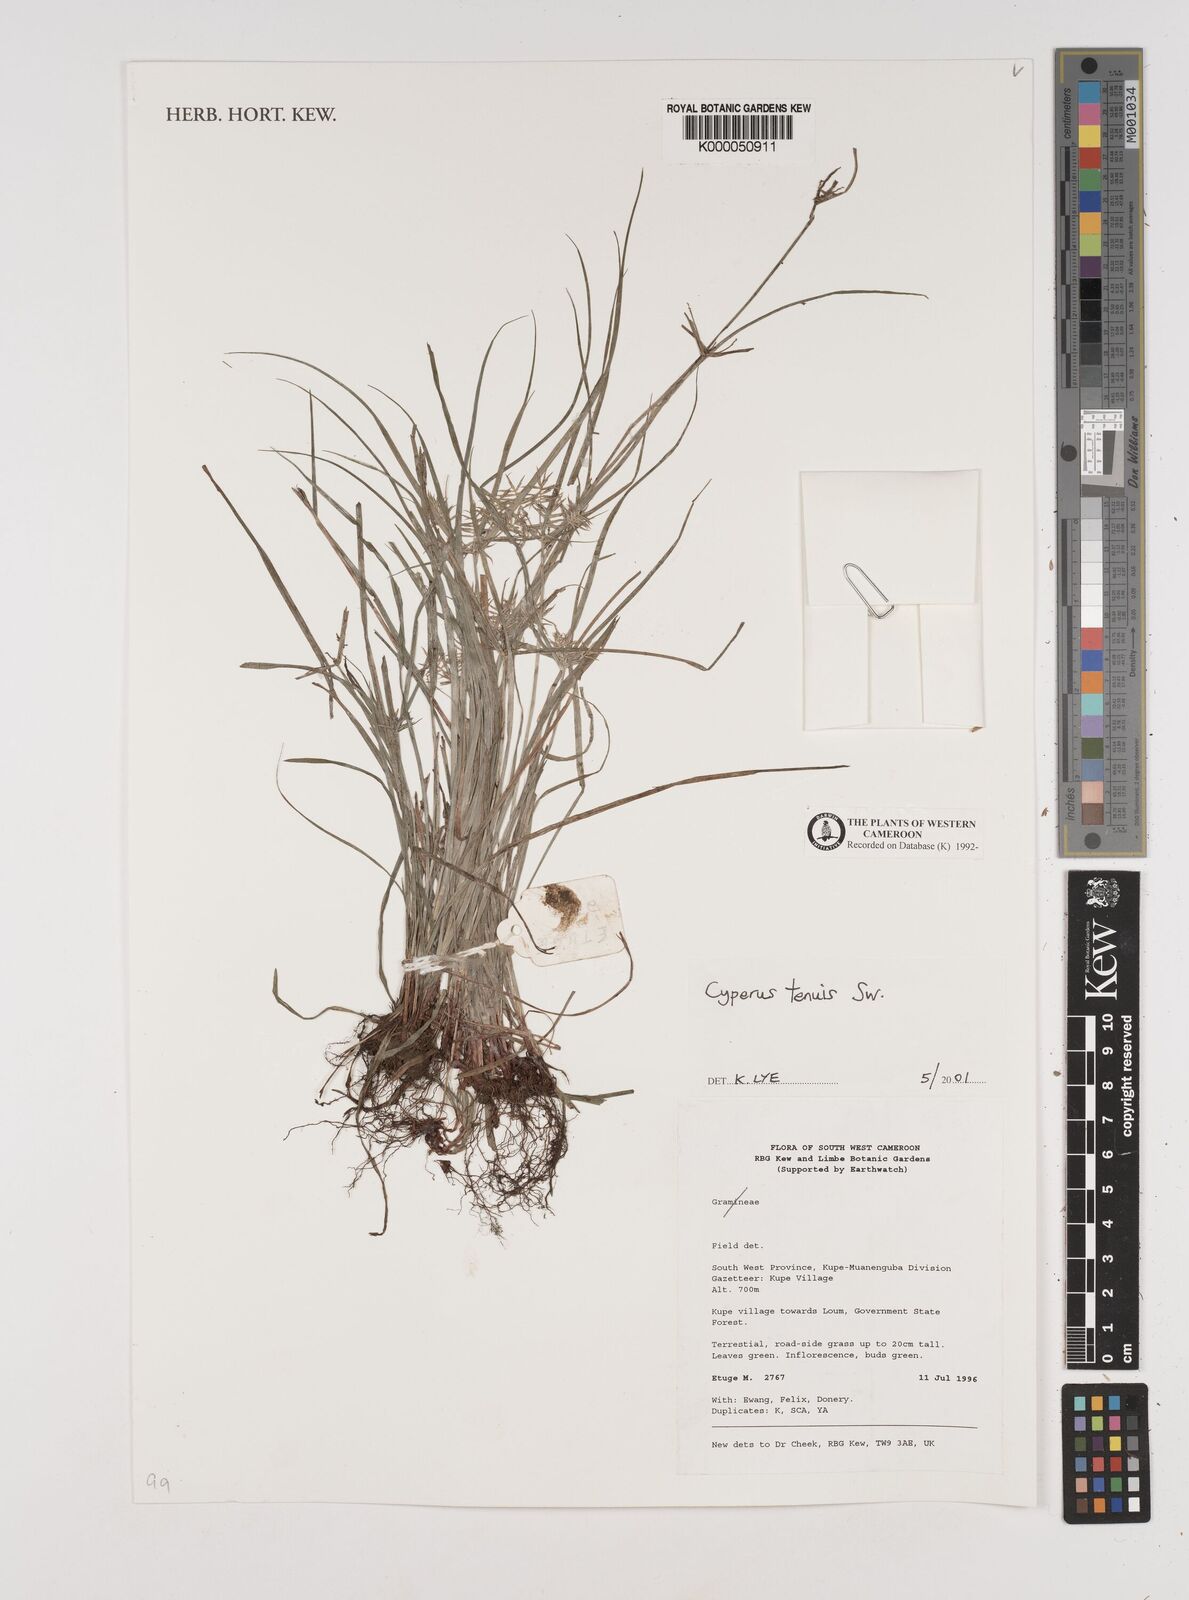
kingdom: Plantae
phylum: Tracheophyta
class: Liliopsida
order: Poales
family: Cyperaceae
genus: Cyperus
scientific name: Cyperus tenuis
